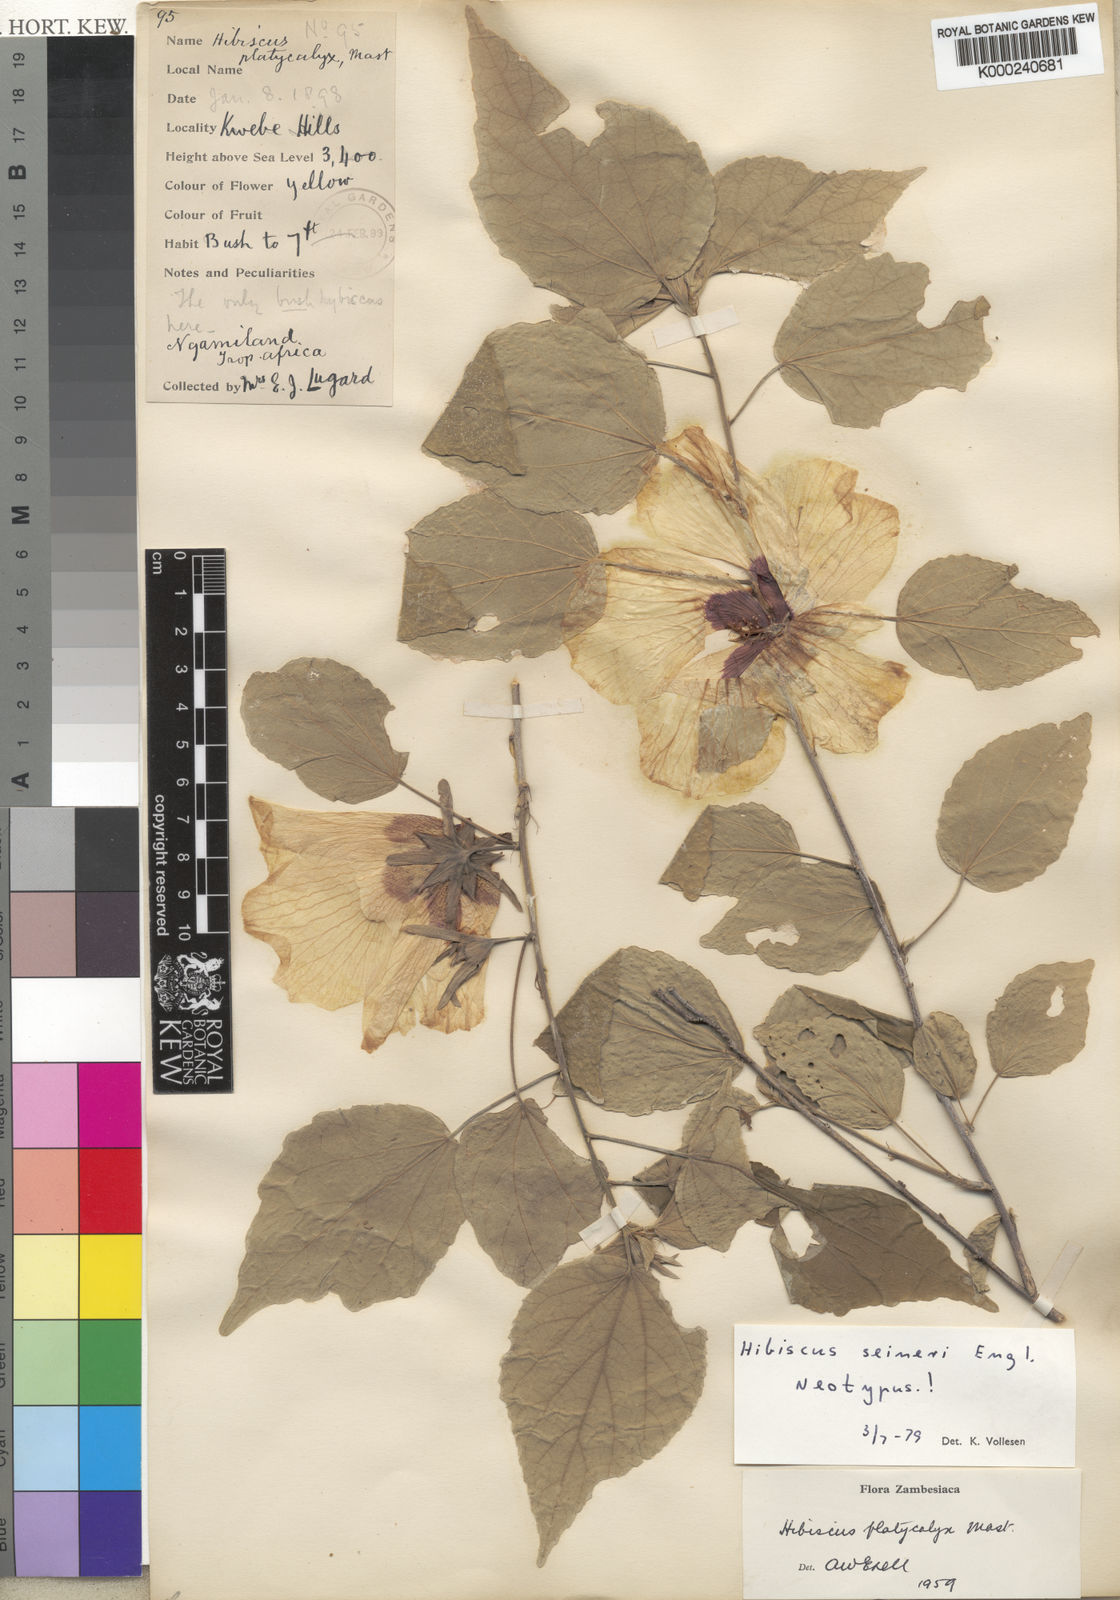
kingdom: Plantae
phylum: Tracheophyta
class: Magnoliopsida
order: Malvales
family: Malvaceae
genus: Hibiscus
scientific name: Hibiscus
